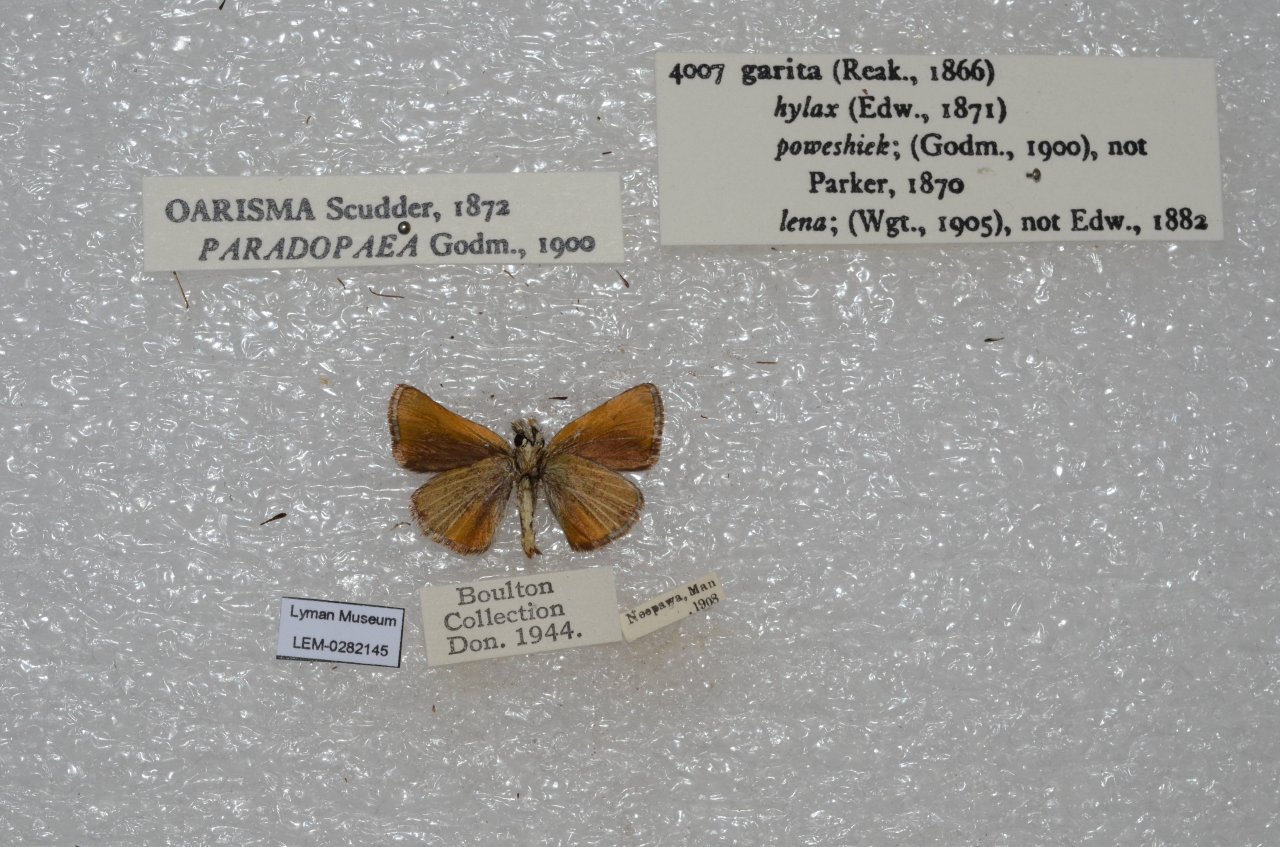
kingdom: Animalia
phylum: Arthropoda
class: Insecta
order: Lepidoptera
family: Hesperiidae
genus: Oarisma
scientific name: Oarisma garita
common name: Garita Skipperling
